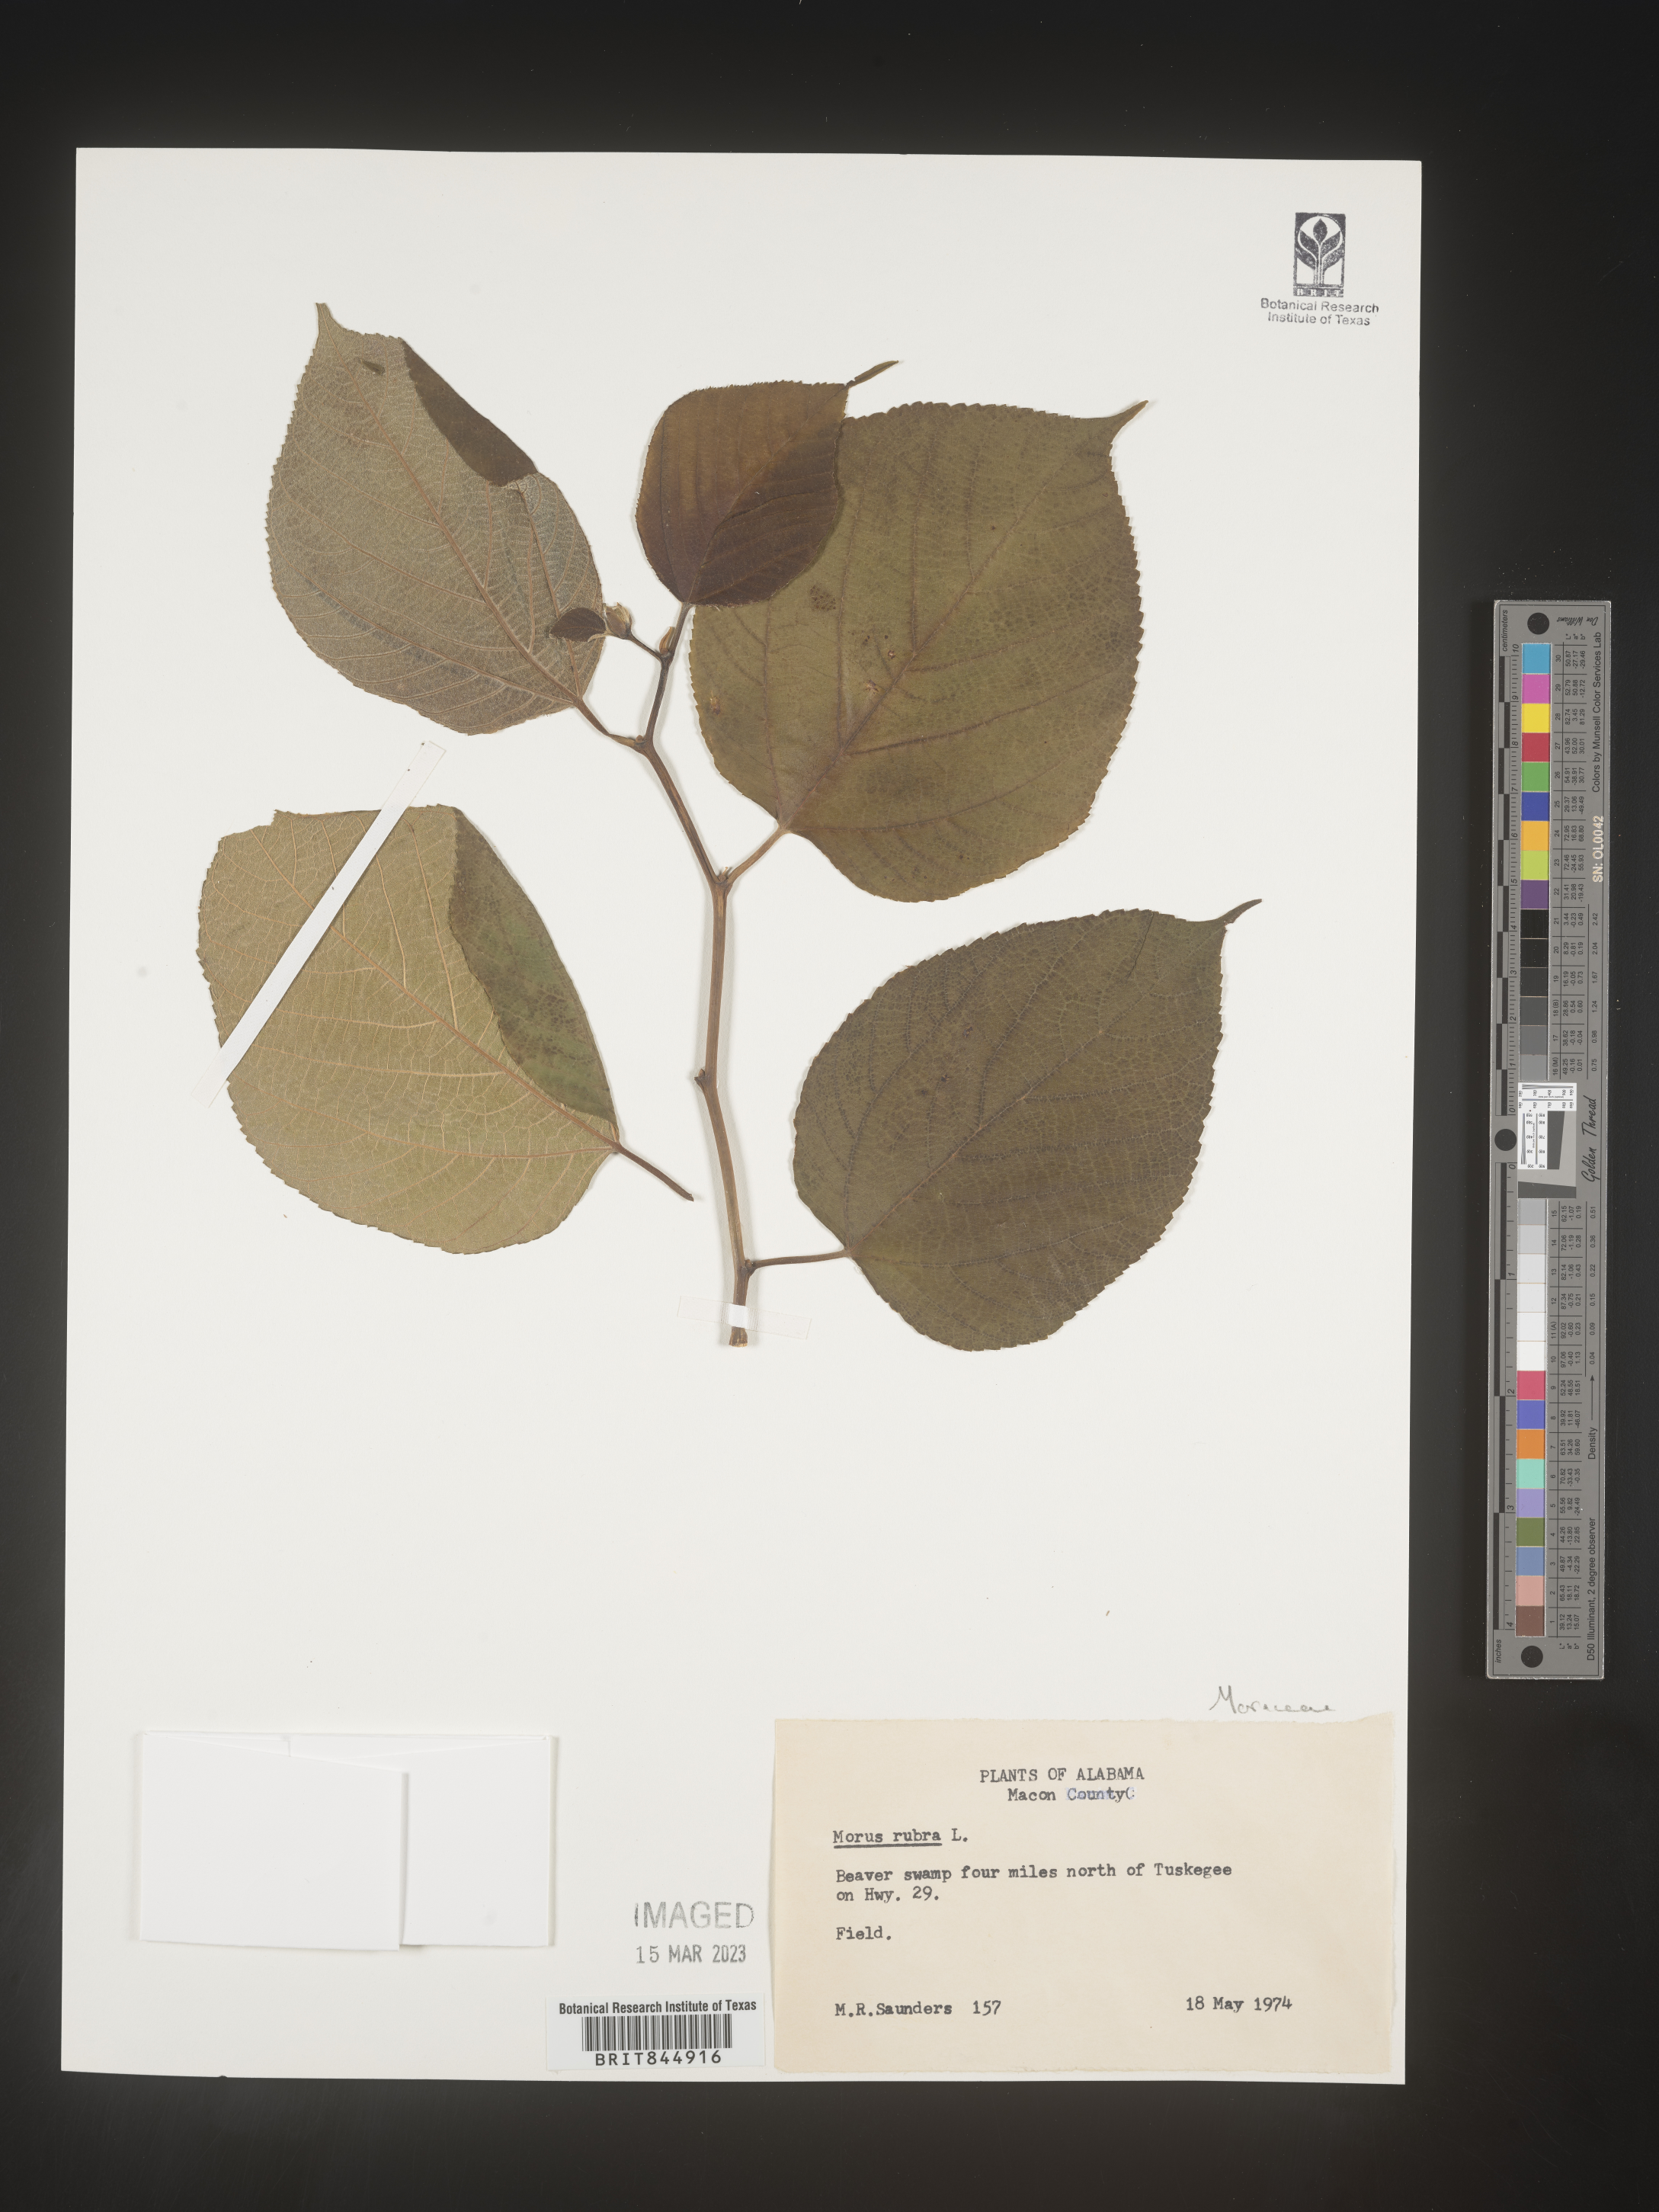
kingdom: Plantae
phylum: Tracheophyta
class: Magnoliopsida
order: Rosales
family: Moraceae
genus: Morus
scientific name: Morus rubra
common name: Red mulberry
